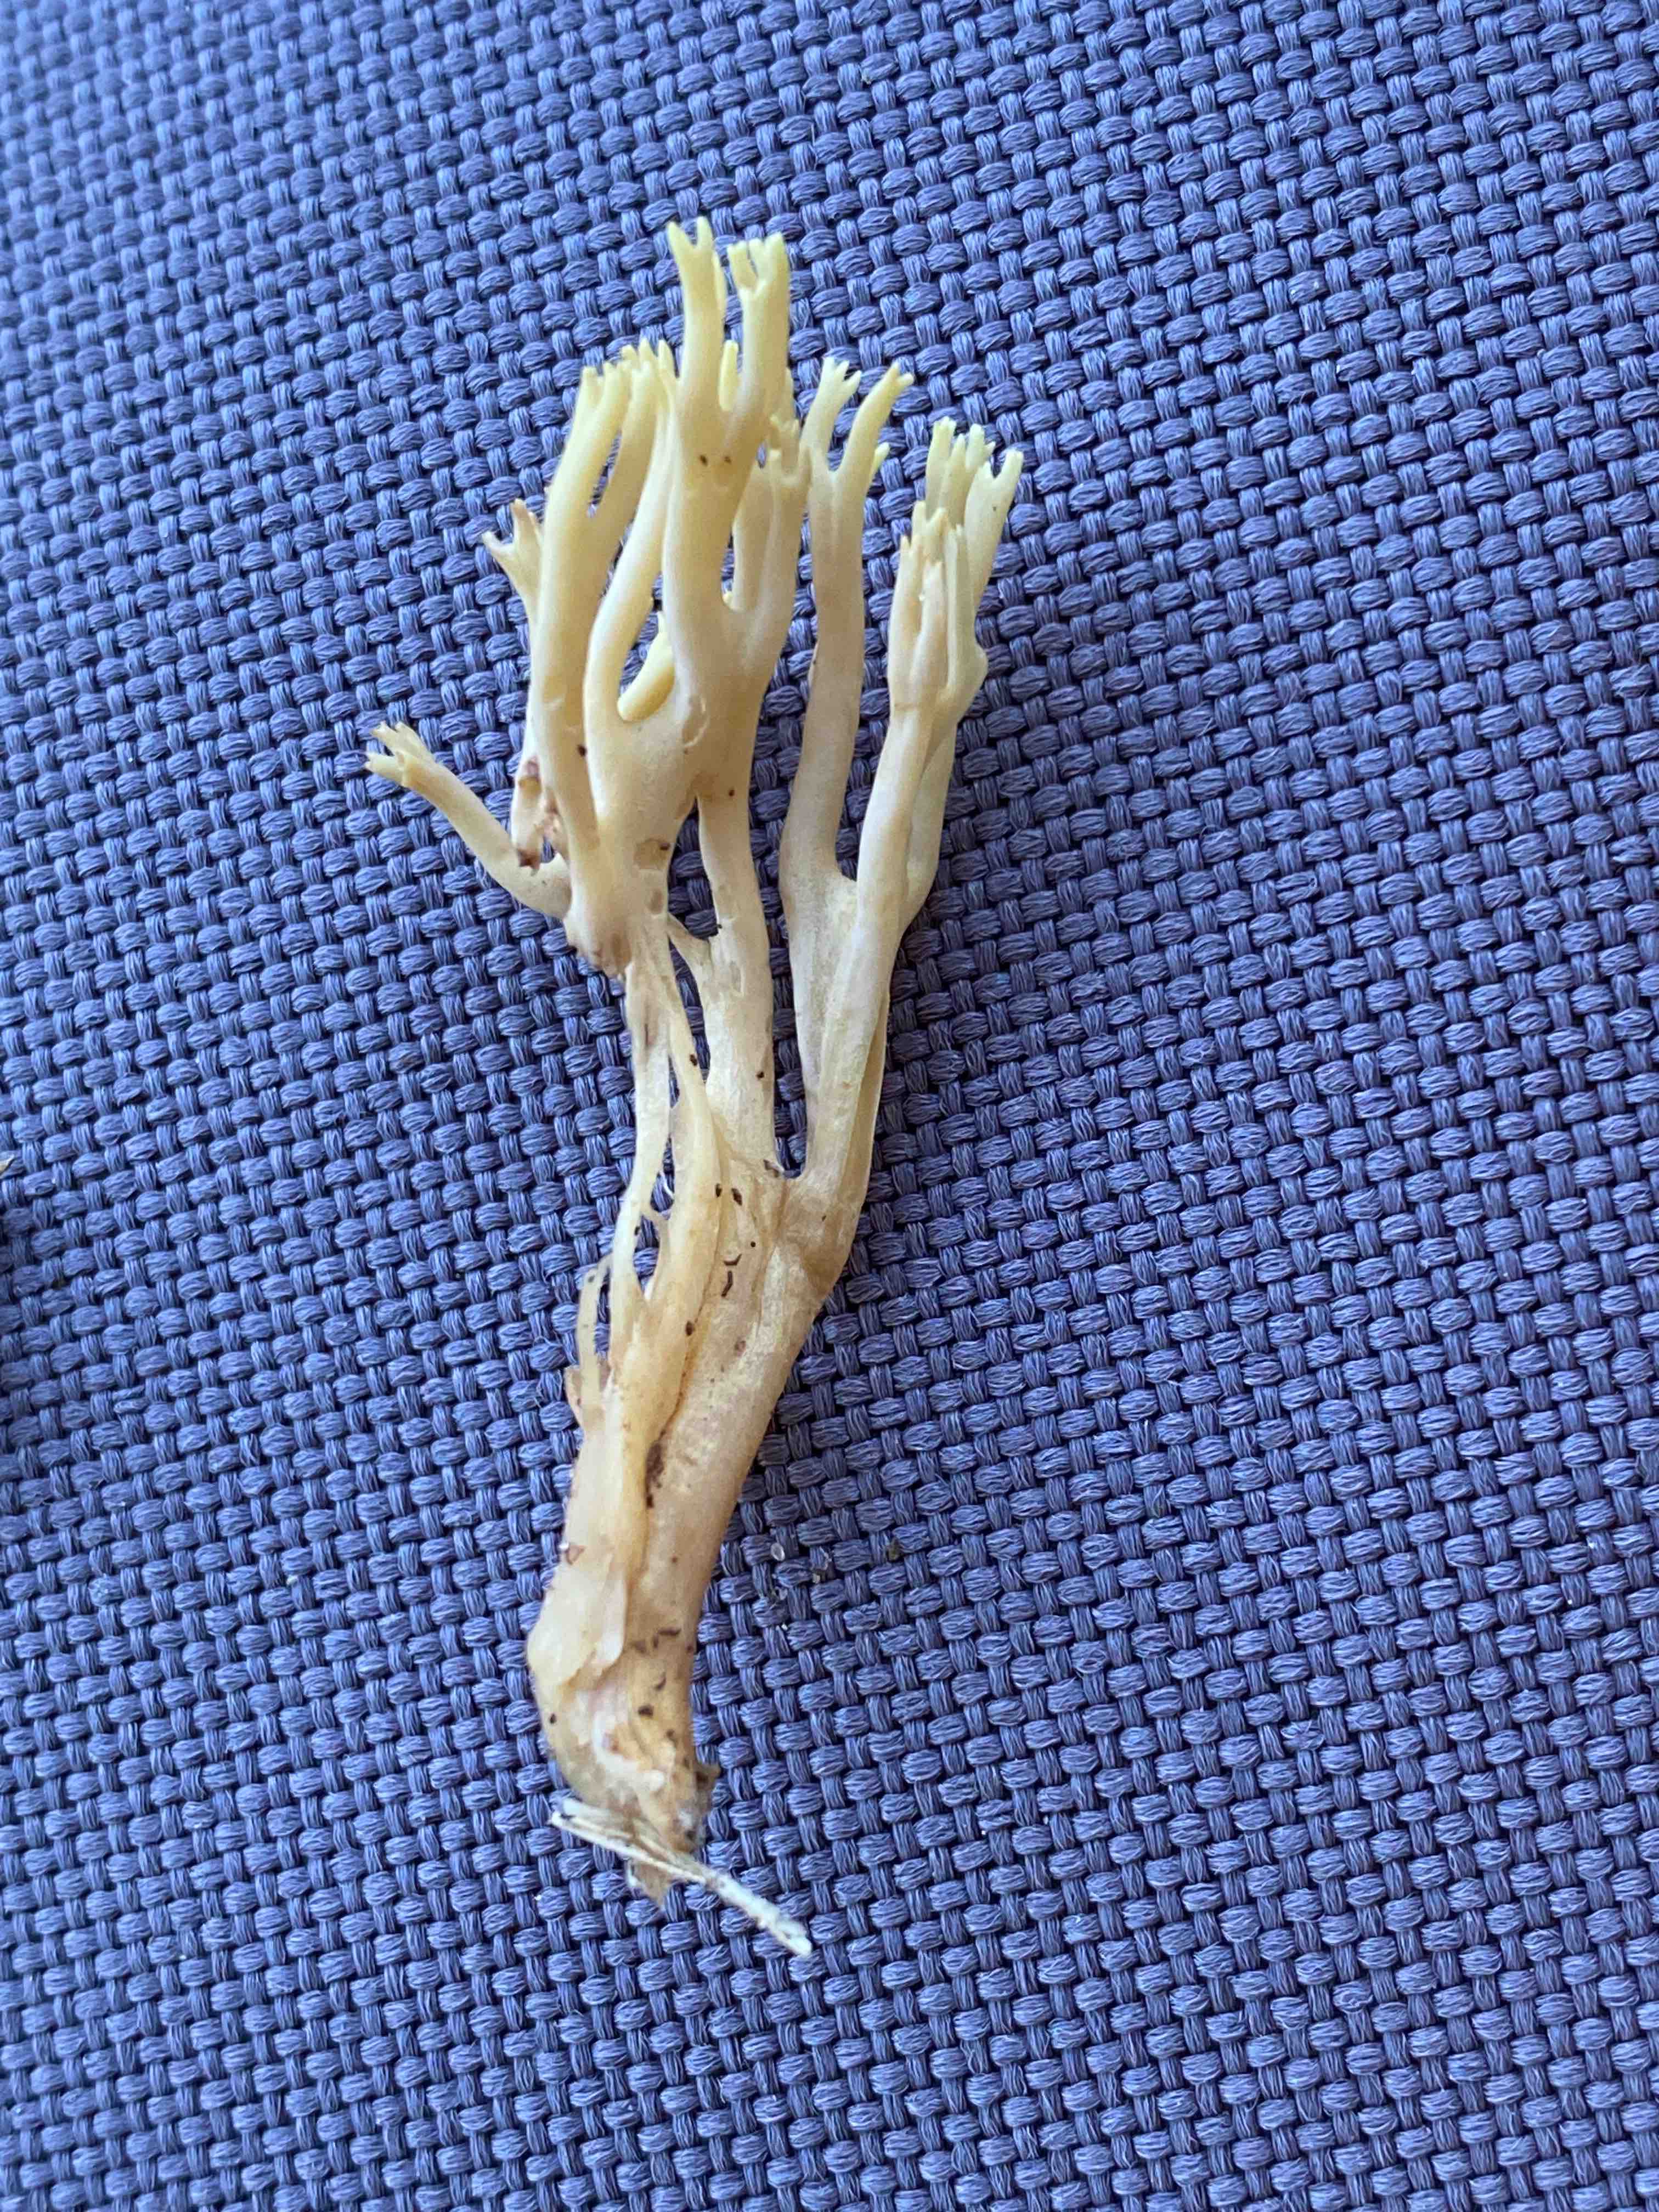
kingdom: Fungi
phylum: Basidiomycota
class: Agaricomycetes
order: Gomphales
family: Gomphaceae
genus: Ramaria
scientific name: Ramaria stricta
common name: rank koralsvamp
